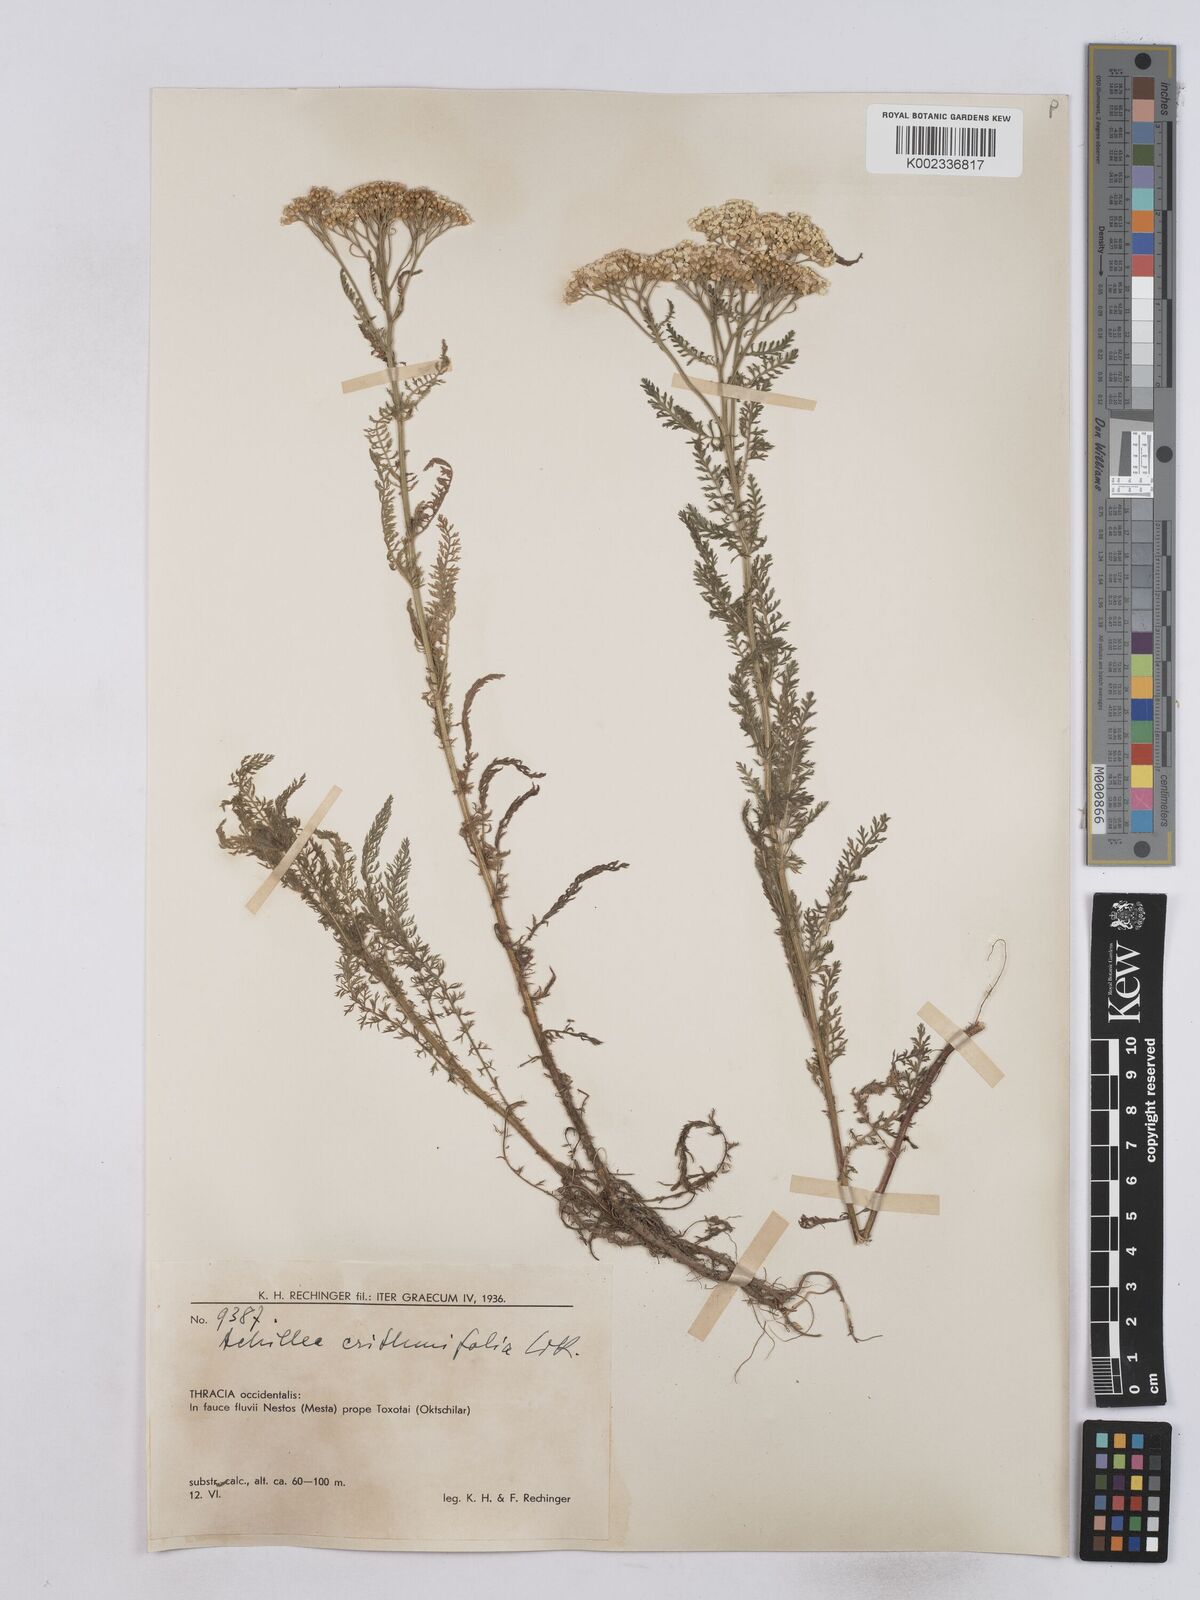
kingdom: Plantae
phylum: Tracheophyta
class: Magnoliopsida
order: Asterales
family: Asteraceae
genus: Achillea
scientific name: Achillea crithmifolia
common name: Yarrow
